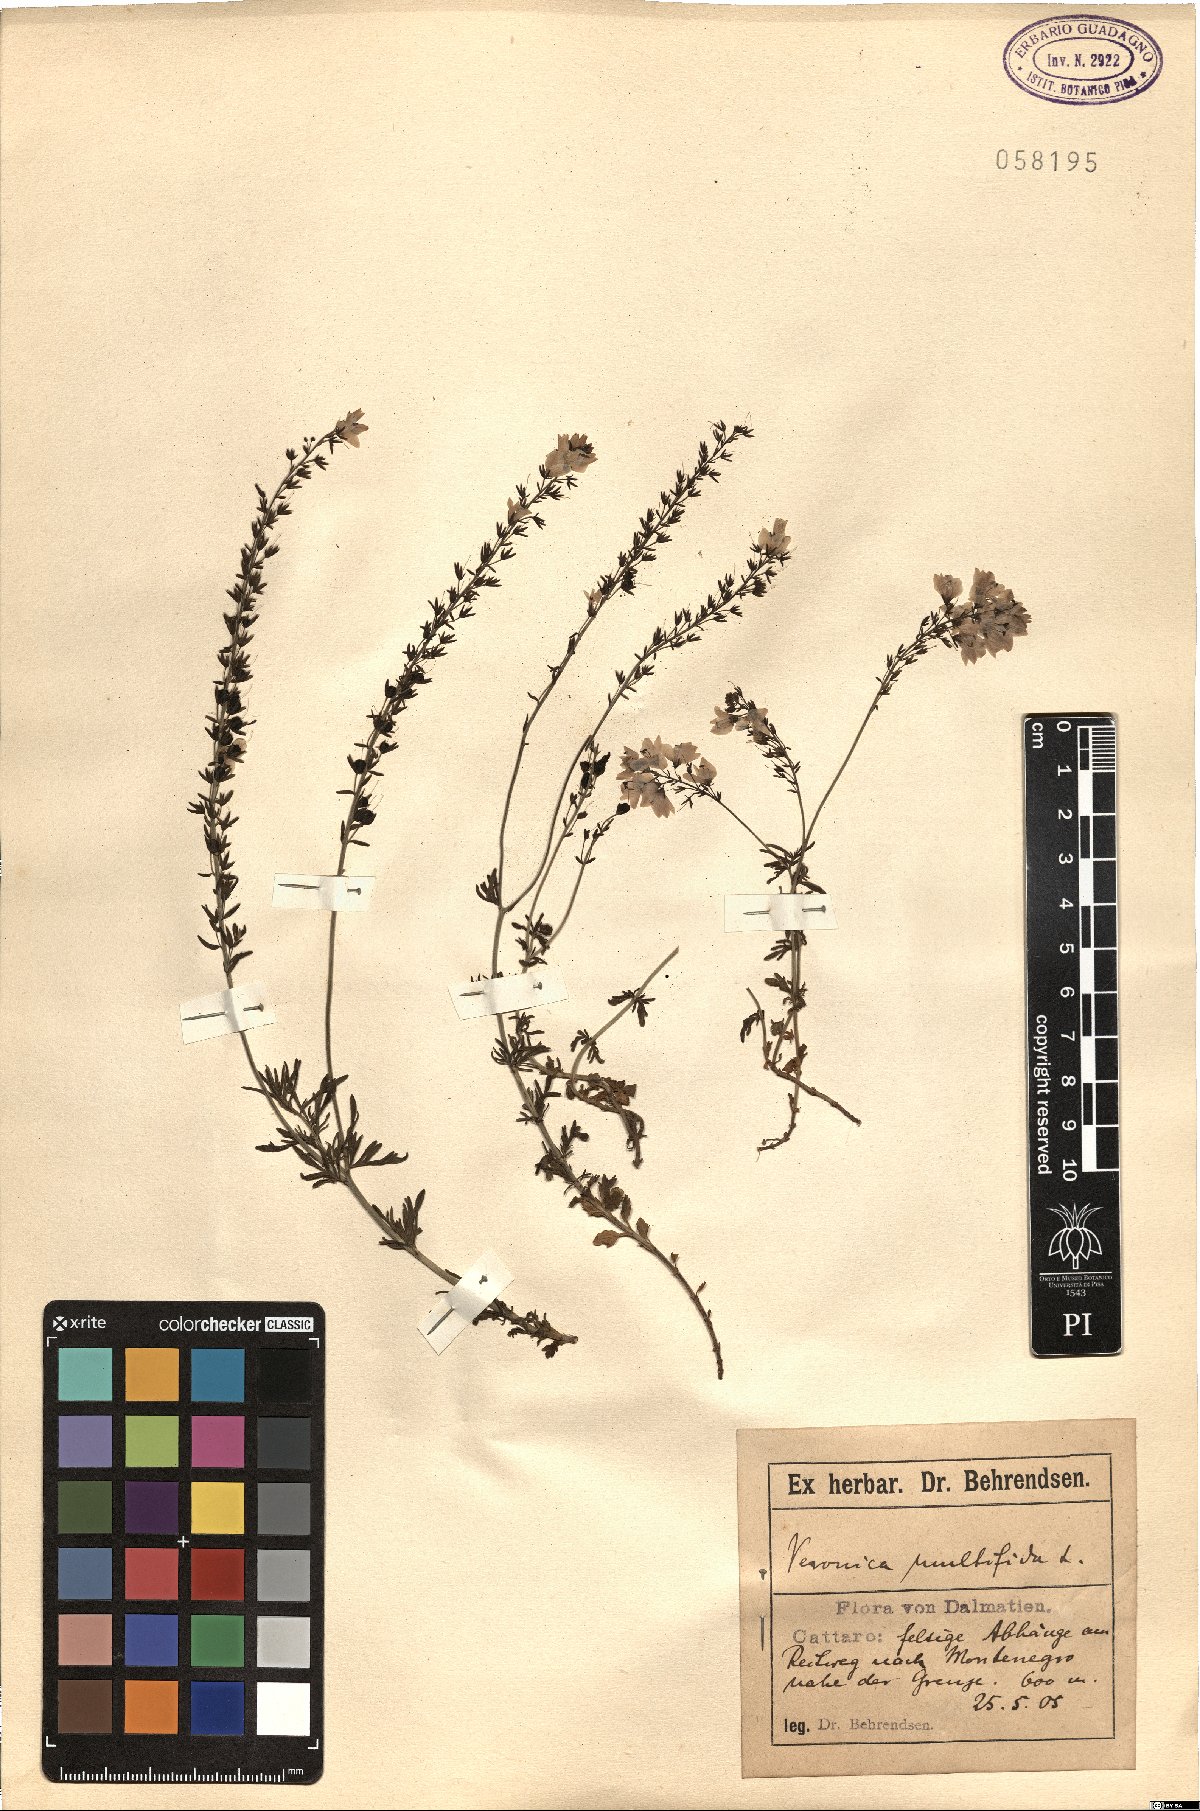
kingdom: Plantae
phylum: Tracheophyta
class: Magnoliopsida
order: Lamiales
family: Plantaginaceae
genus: Veronica
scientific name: Veronica multifida
